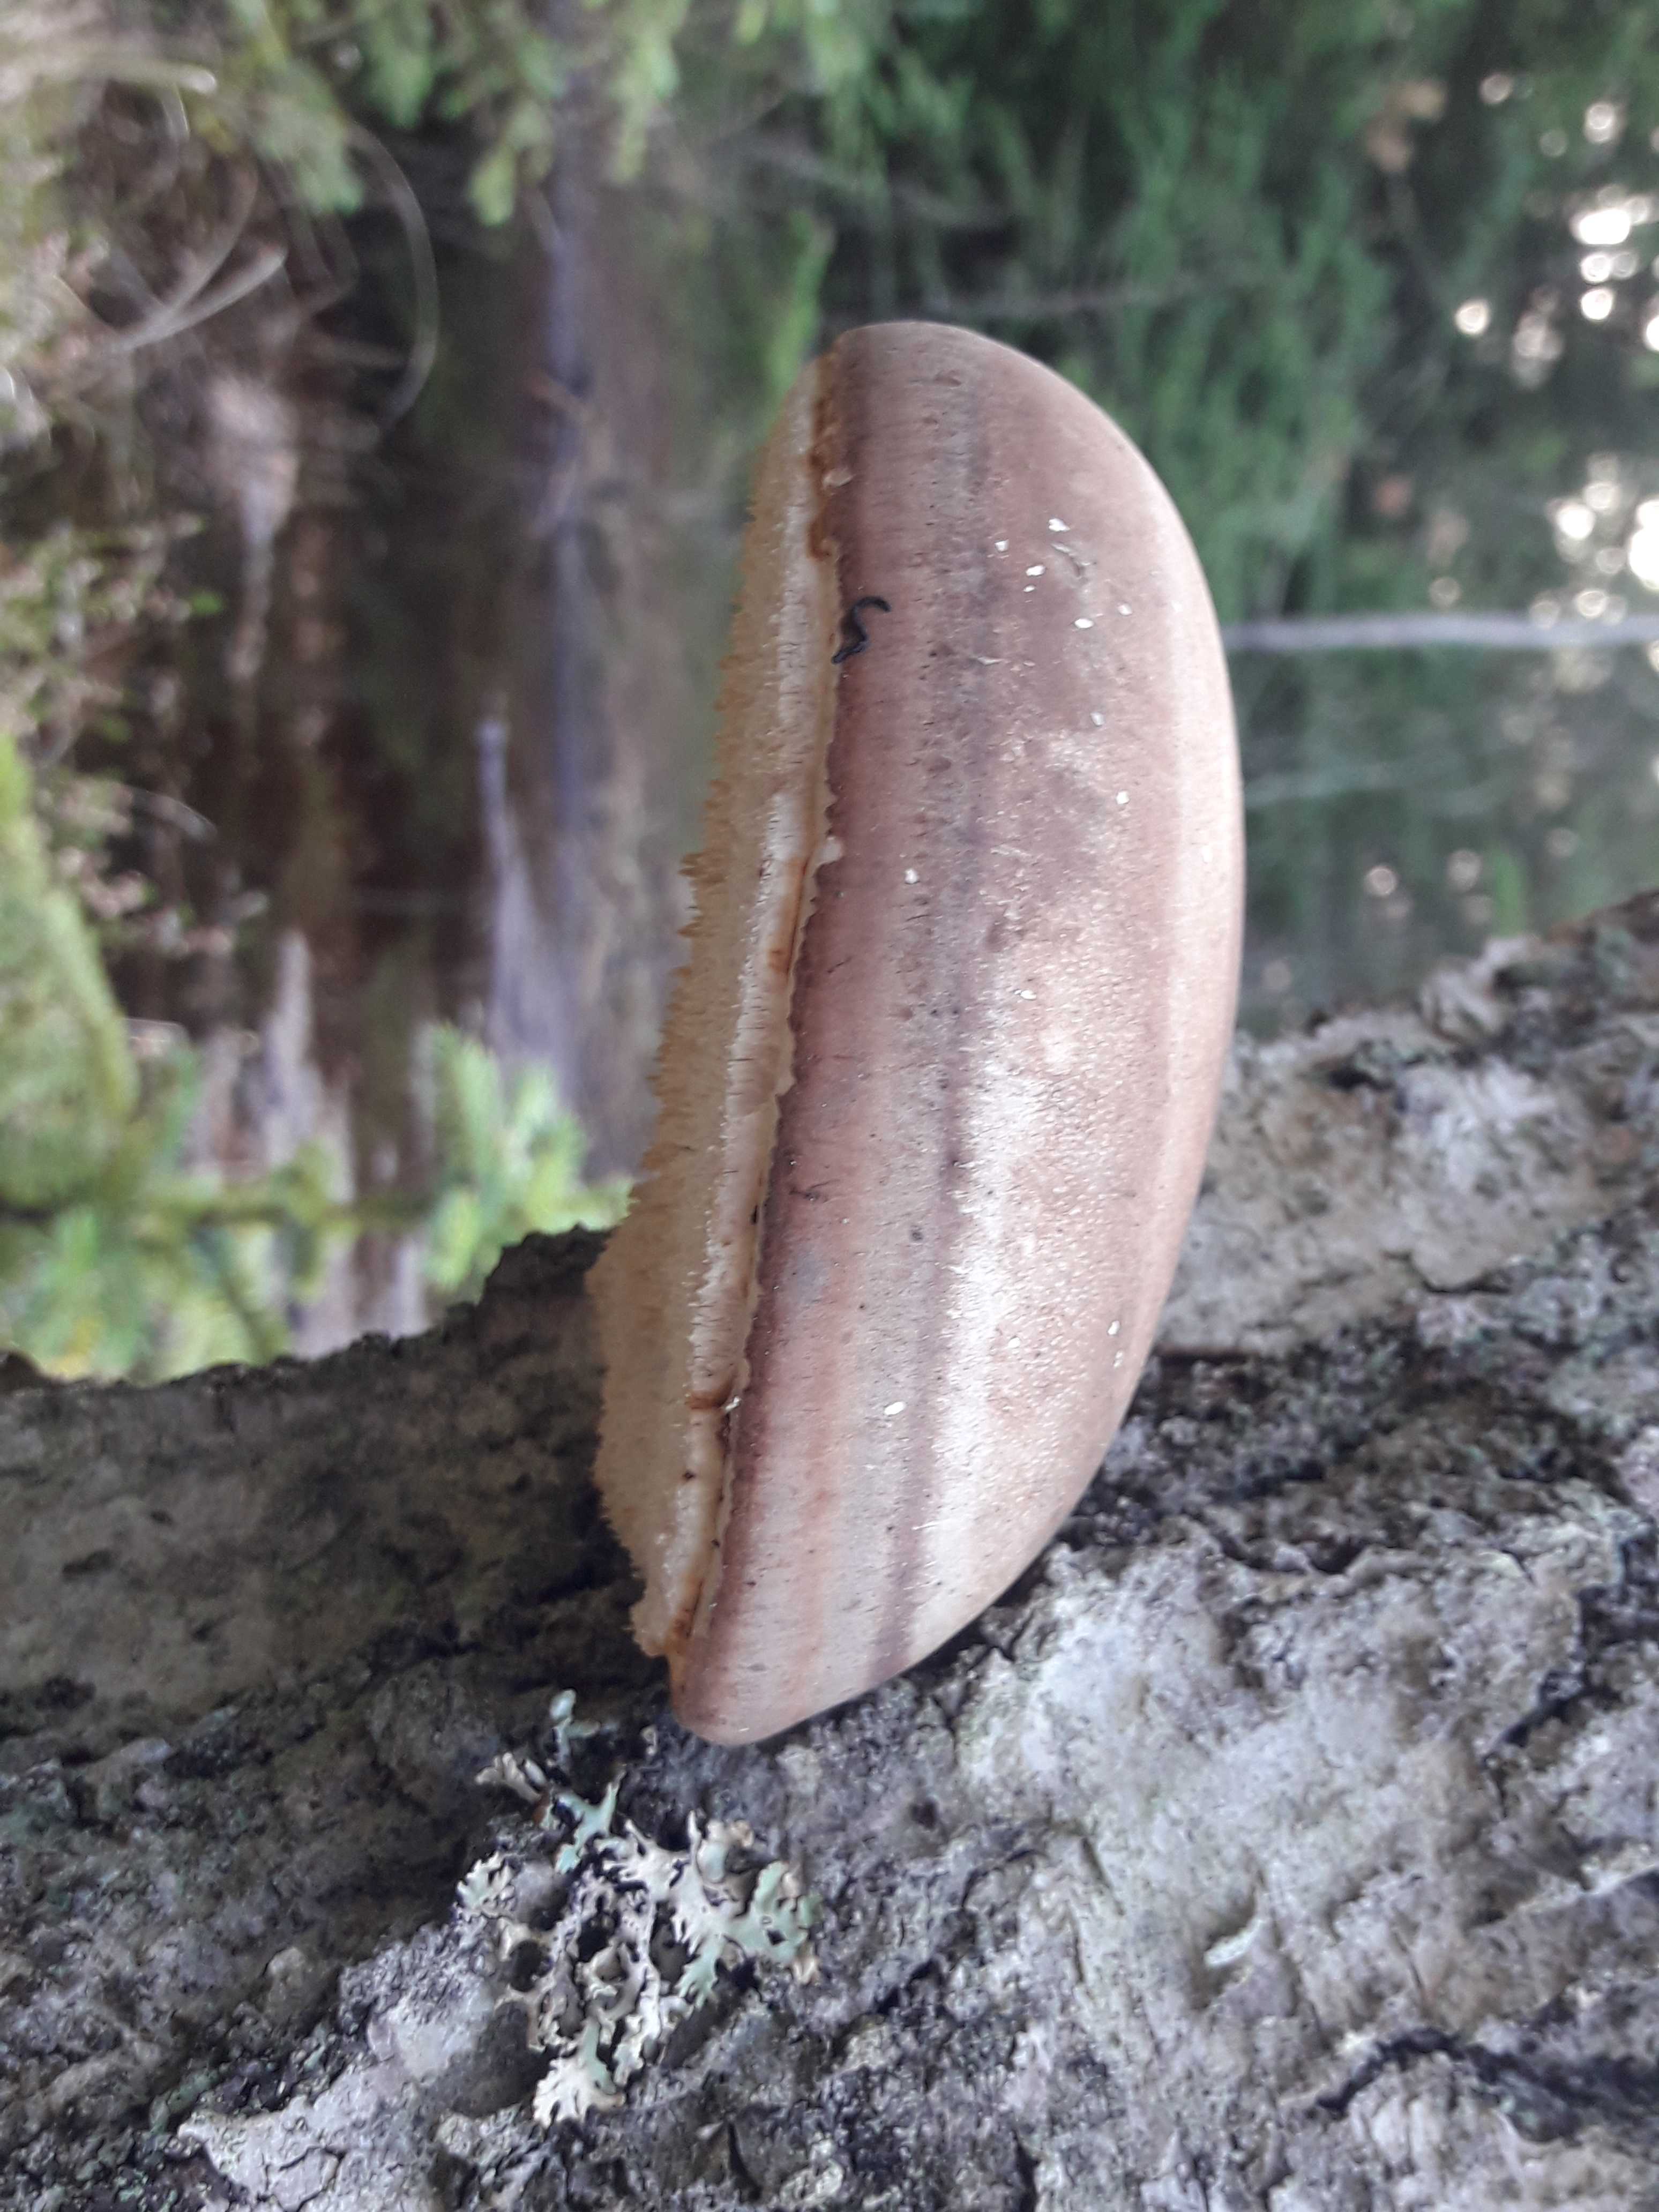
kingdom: Fungi
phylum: Basidiomycota
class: Agaricomycetes
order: Polyporales
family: Fomitopsidaceae
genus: Fomitopsis
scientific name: Fomitopsis betulina
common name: birkeporesvamp
